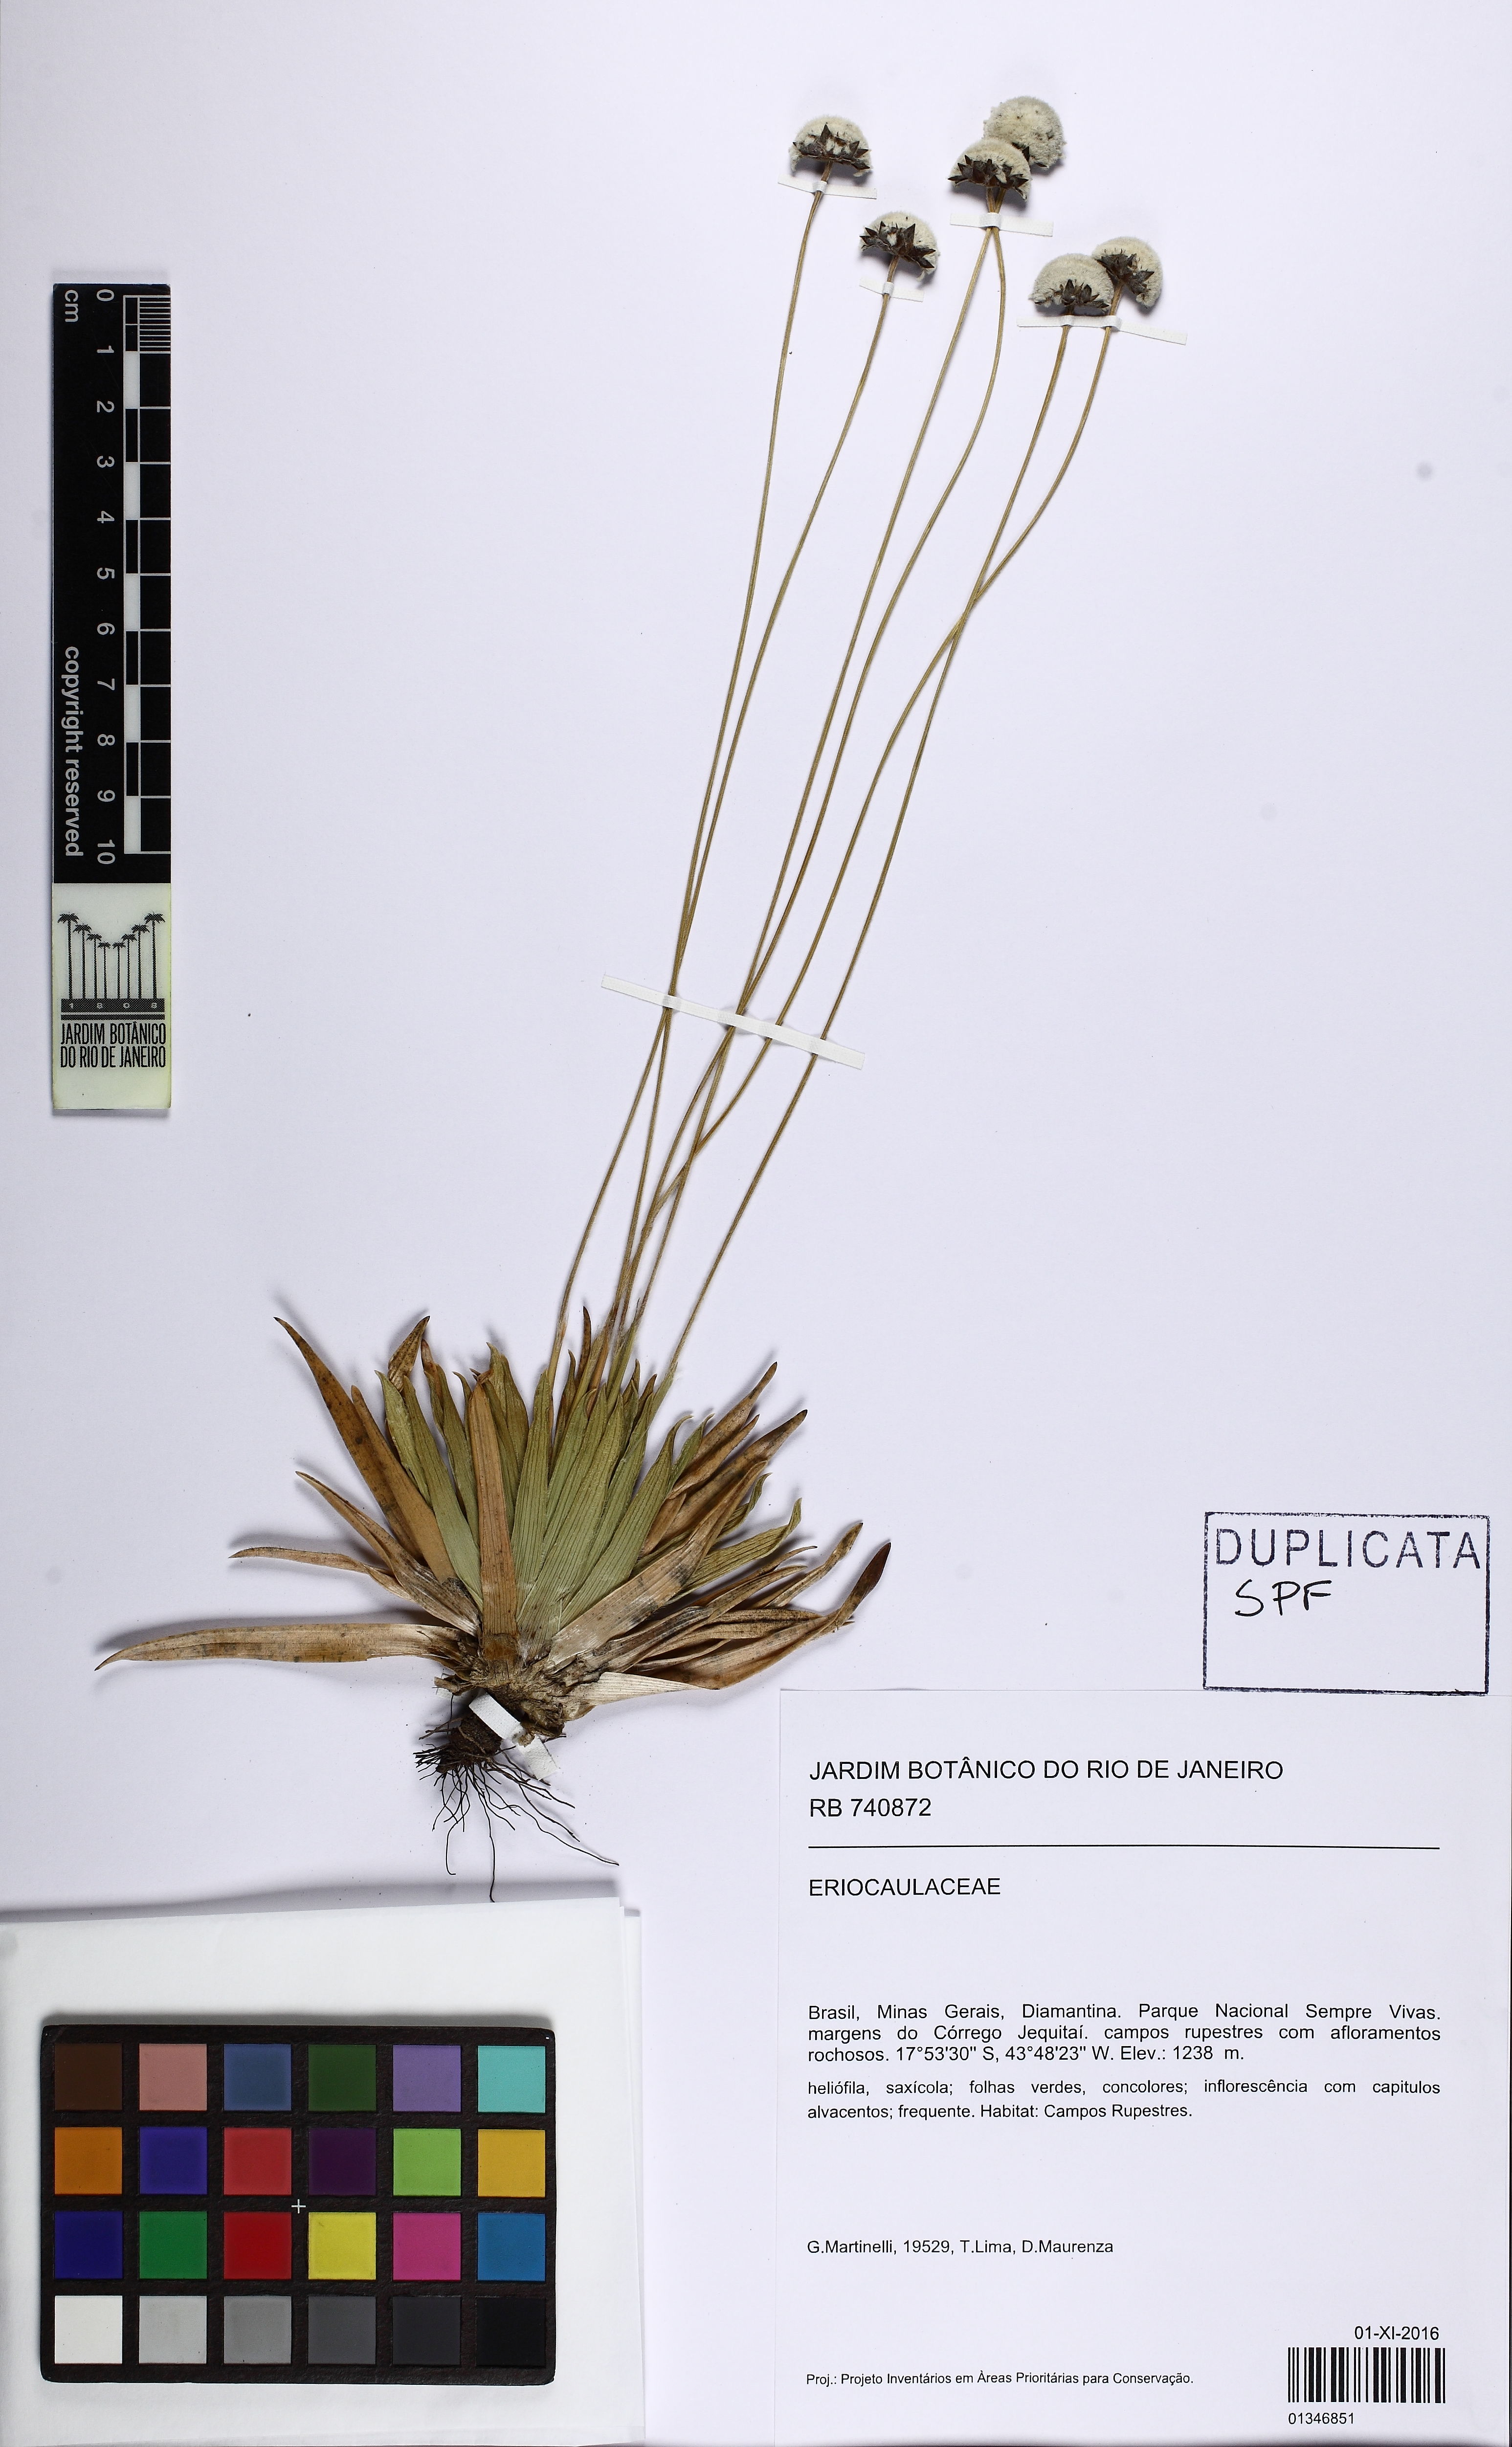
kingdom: Plantae
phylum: Tracheophyta
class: Liliopsida
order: Poales
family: Eriocaulaceae
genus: Paepalanthus
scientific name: Paepalanthus comans
